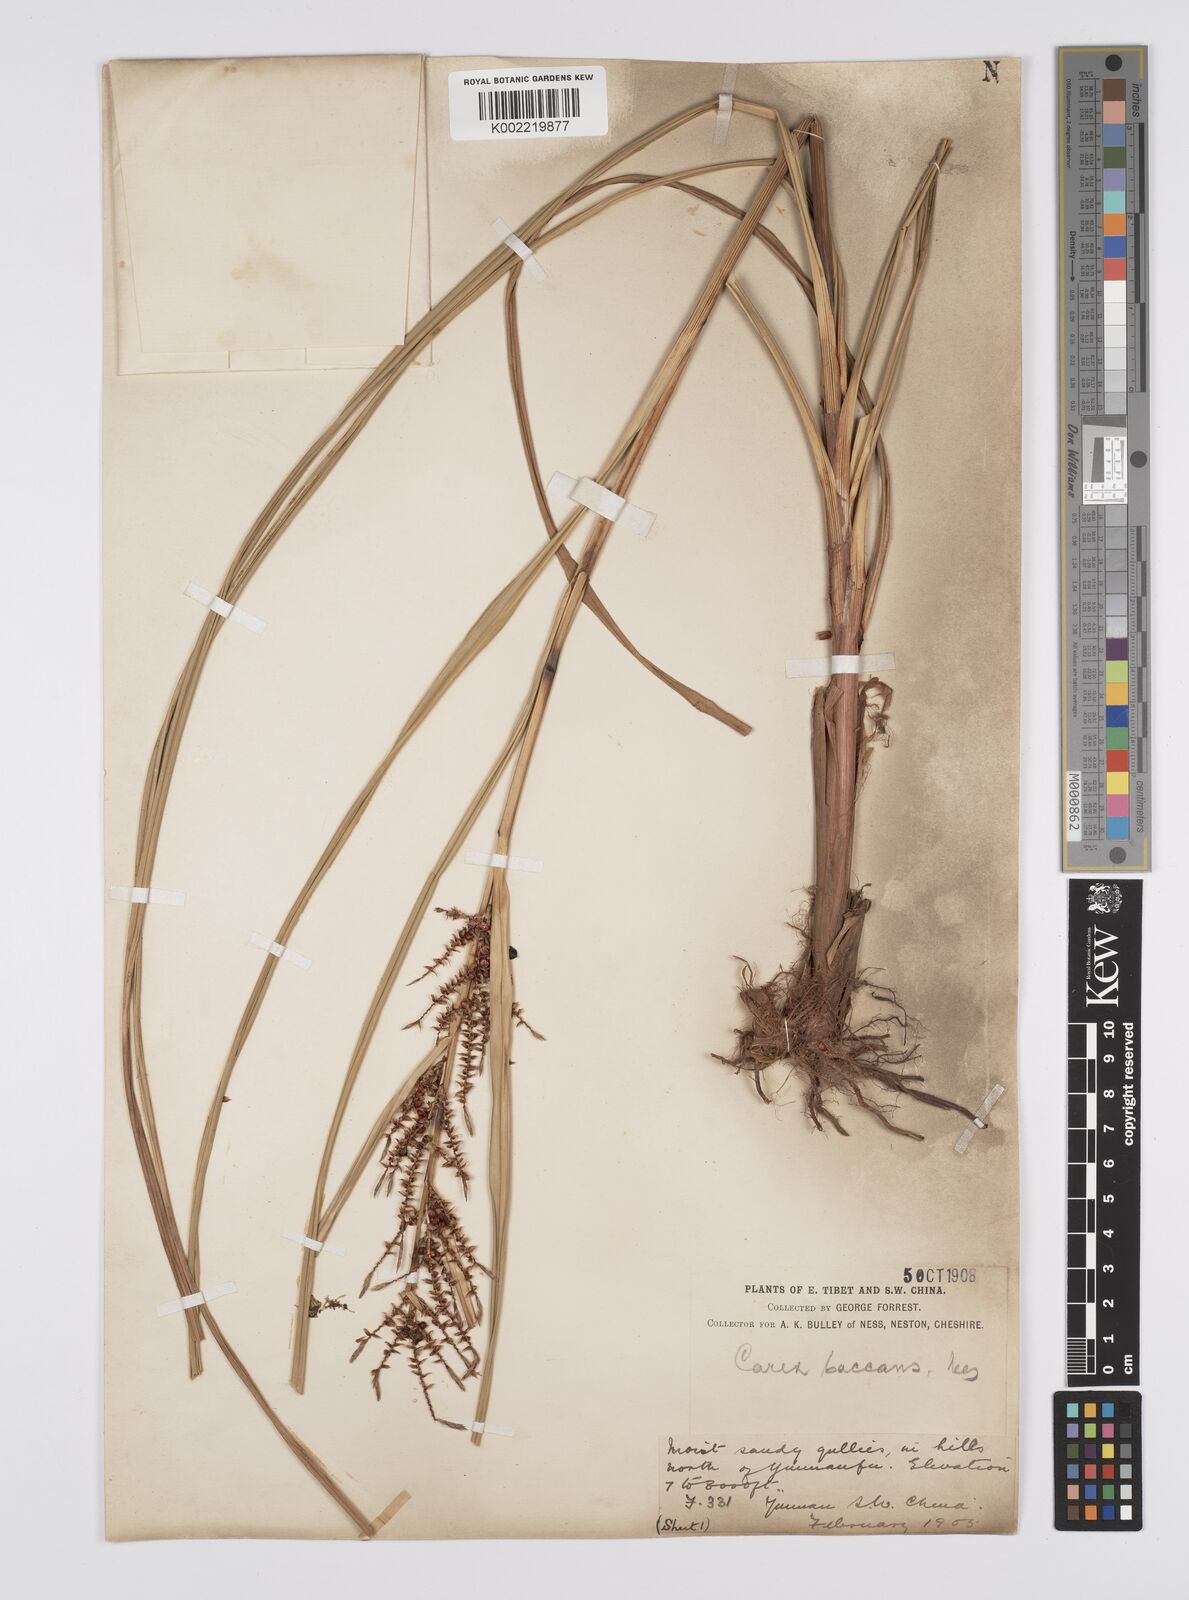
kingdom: Plantae
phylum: Tracheophyta
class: Liliopsida
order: Poales
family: Cyperaceae
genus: Carex
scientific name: Carex baccans
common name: Crimson seeded sedge
